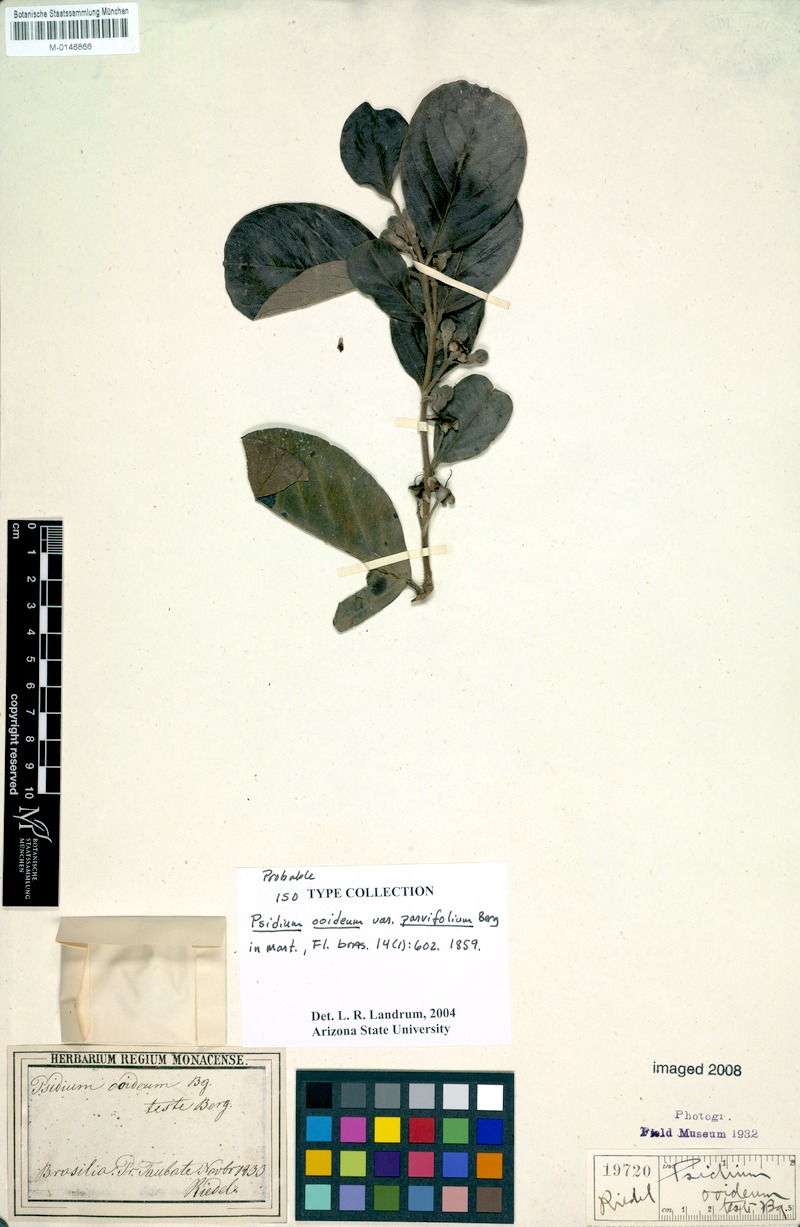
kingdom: Plantae
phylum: Tracheophyta
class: Magnoliopsida
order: Myrtales
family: Myrtaceae
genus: Psidium
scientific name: Psidium guineense
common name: Brazilian guava
